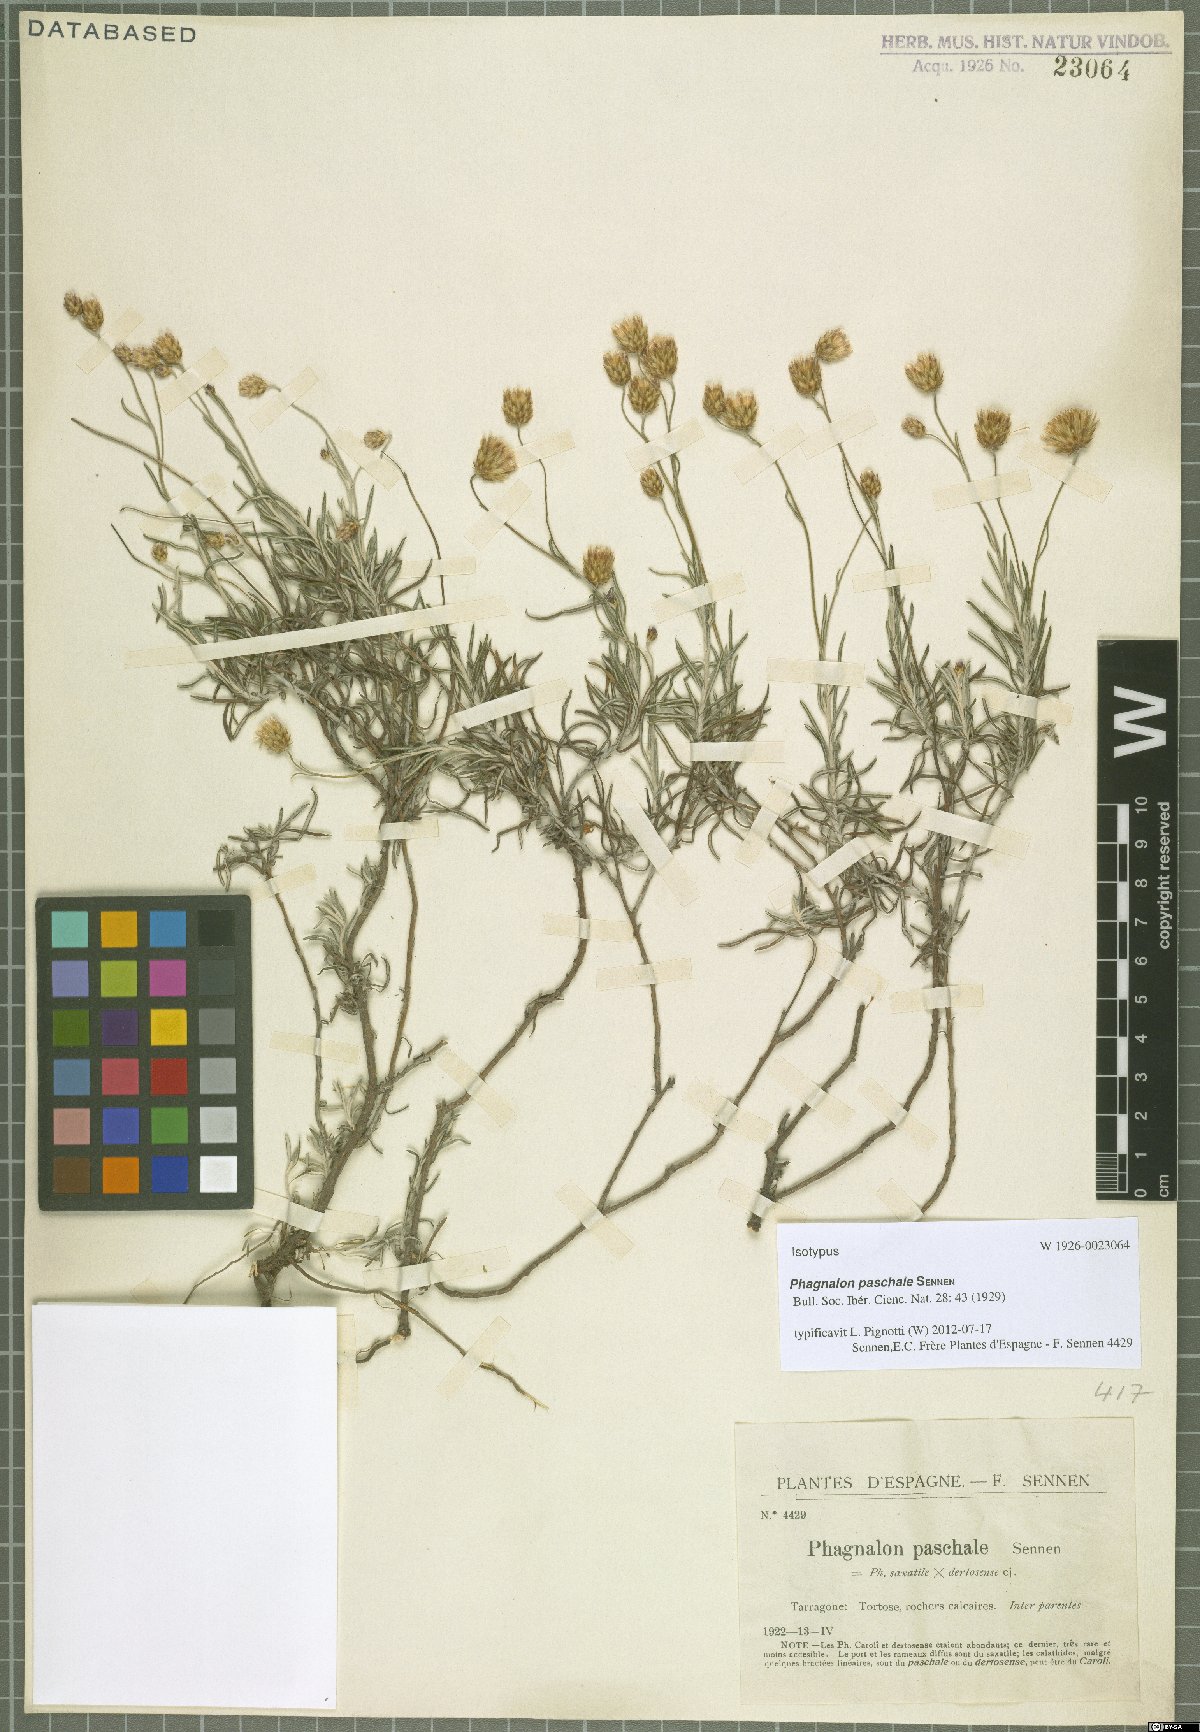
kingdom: Plantae
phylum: Tracheophyta
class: Magnoliopsida
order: Asterales
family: Asteraceae
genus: Phagnalon
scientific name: Phagnalon telonense
